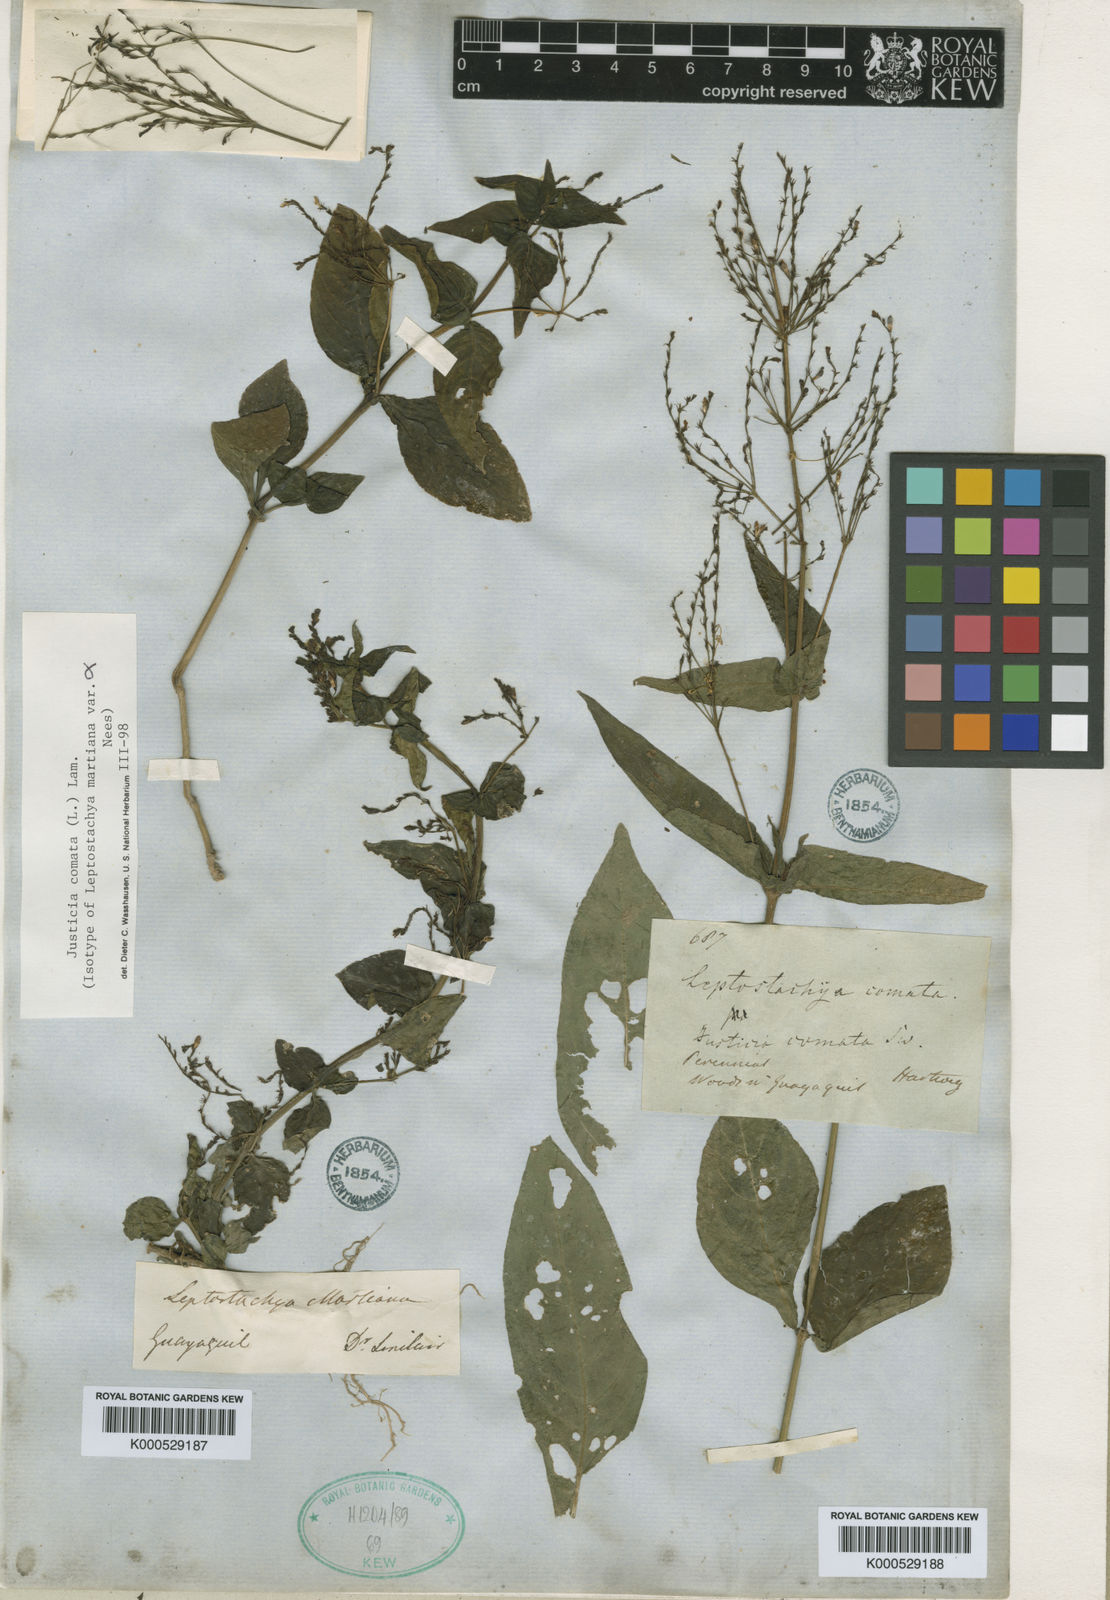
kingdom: Plantae
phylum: Tracheophyta
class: Magnoliopsida
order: Lamiales
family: Acanthaceae
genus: Dianthera
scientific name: Dianthera comata
